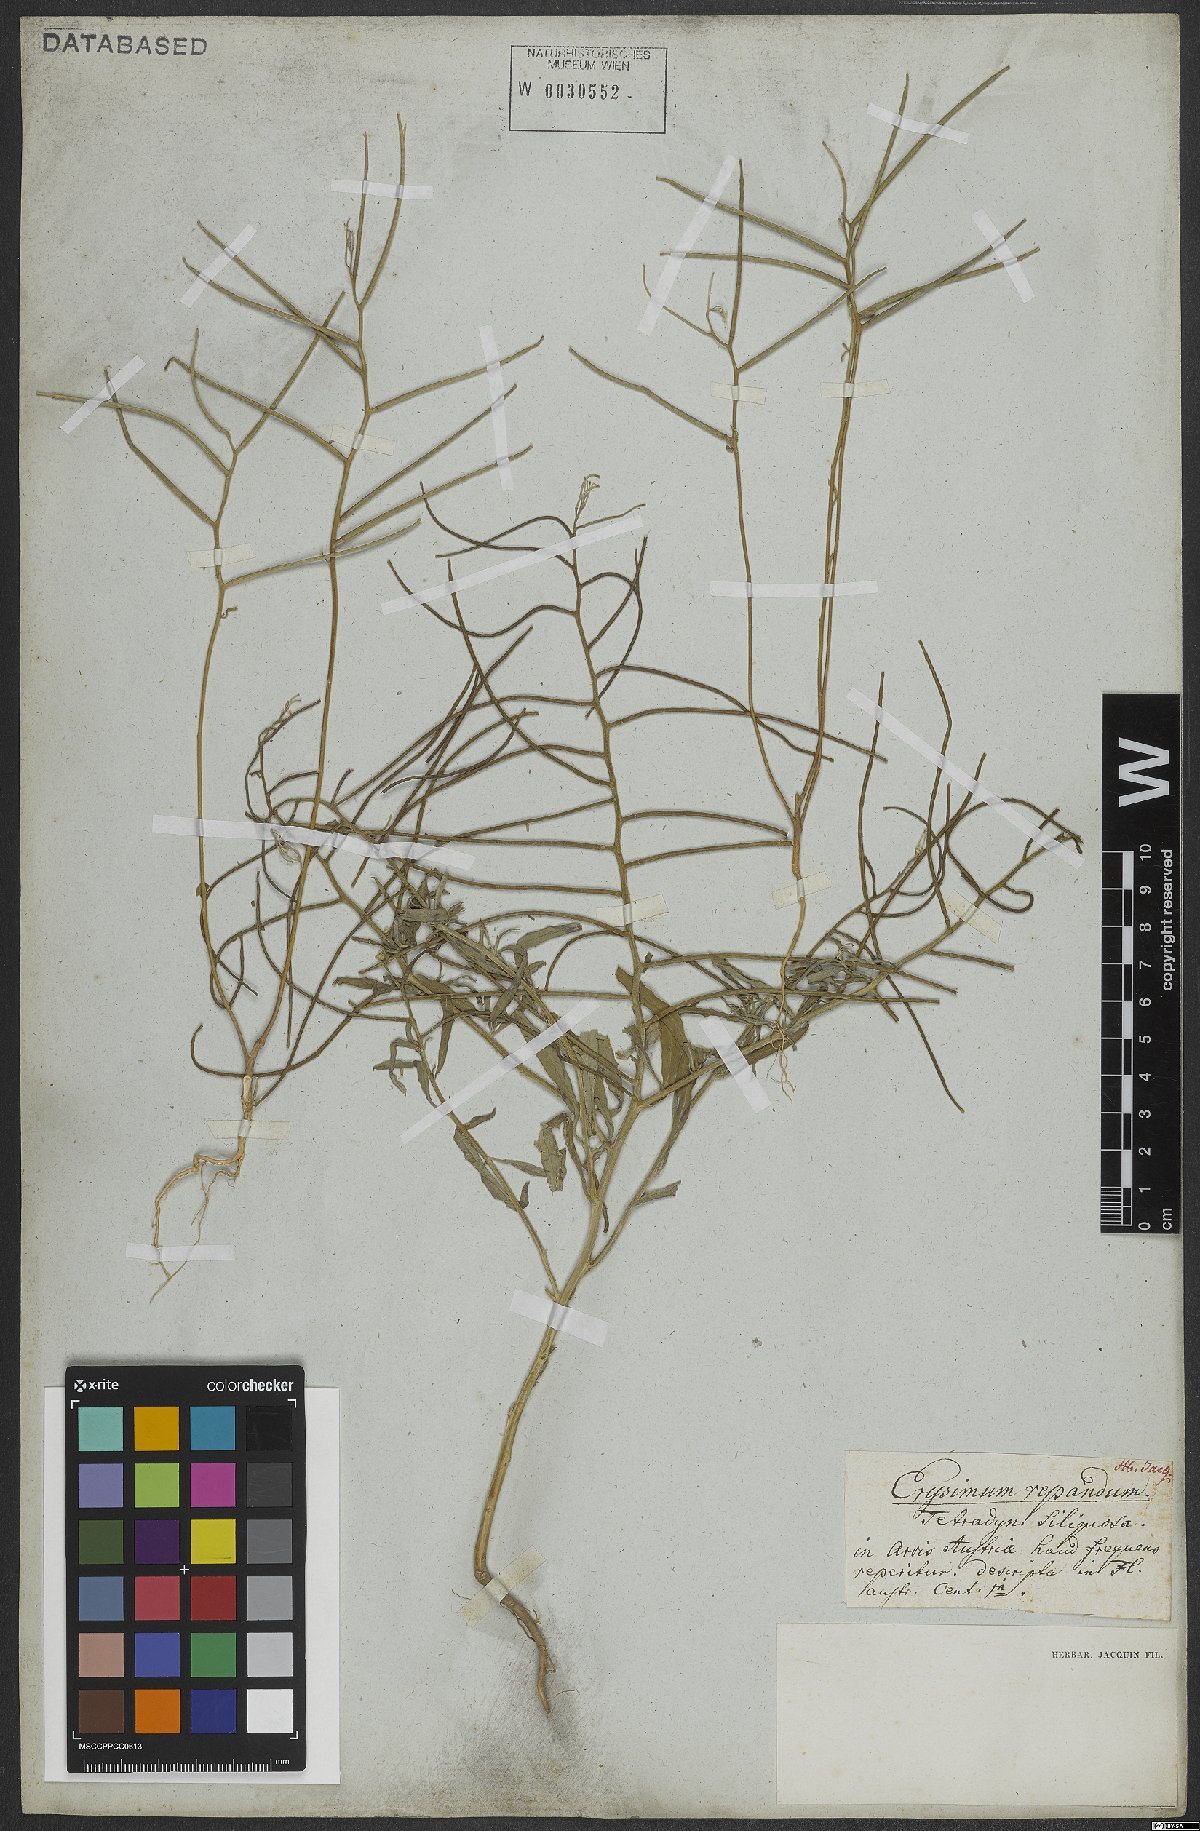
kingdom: Plantae
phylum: Tracheophyta
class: Magnoliopsida
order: Brassicales
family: Brassicaceae
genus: Erysimum
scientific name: Erysimum repandum
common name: Spreading wallflower
